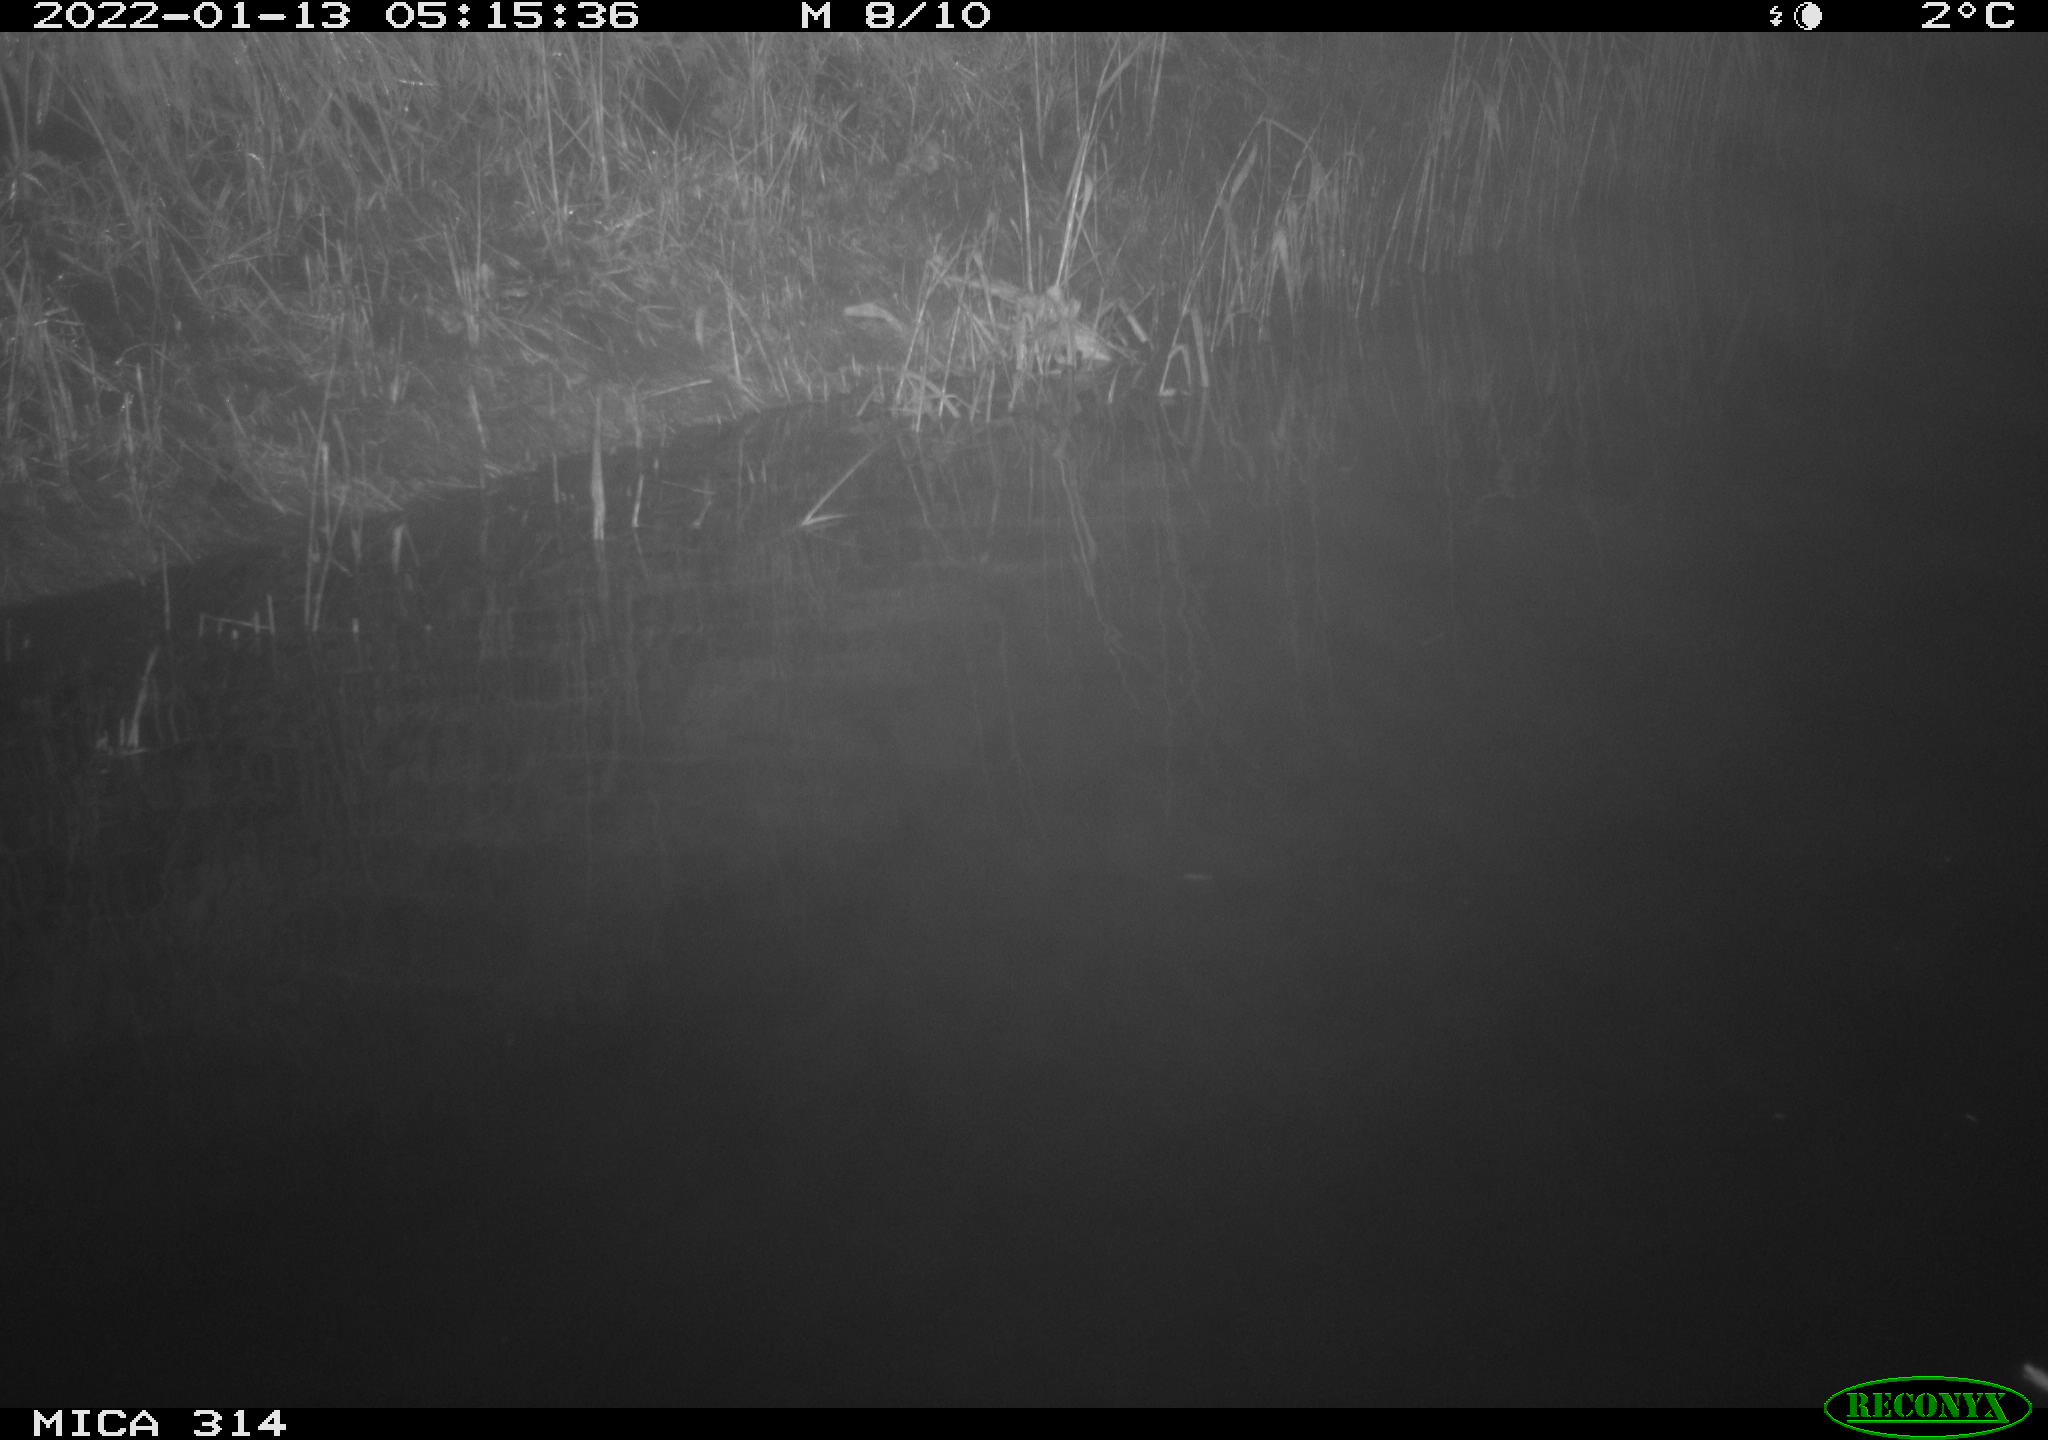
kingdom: Animalia
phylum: Chordata
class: Mammalia
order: Rodentia
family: Muridae
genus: Rattus
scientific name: Rattus norvegicus
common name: Brown rat
